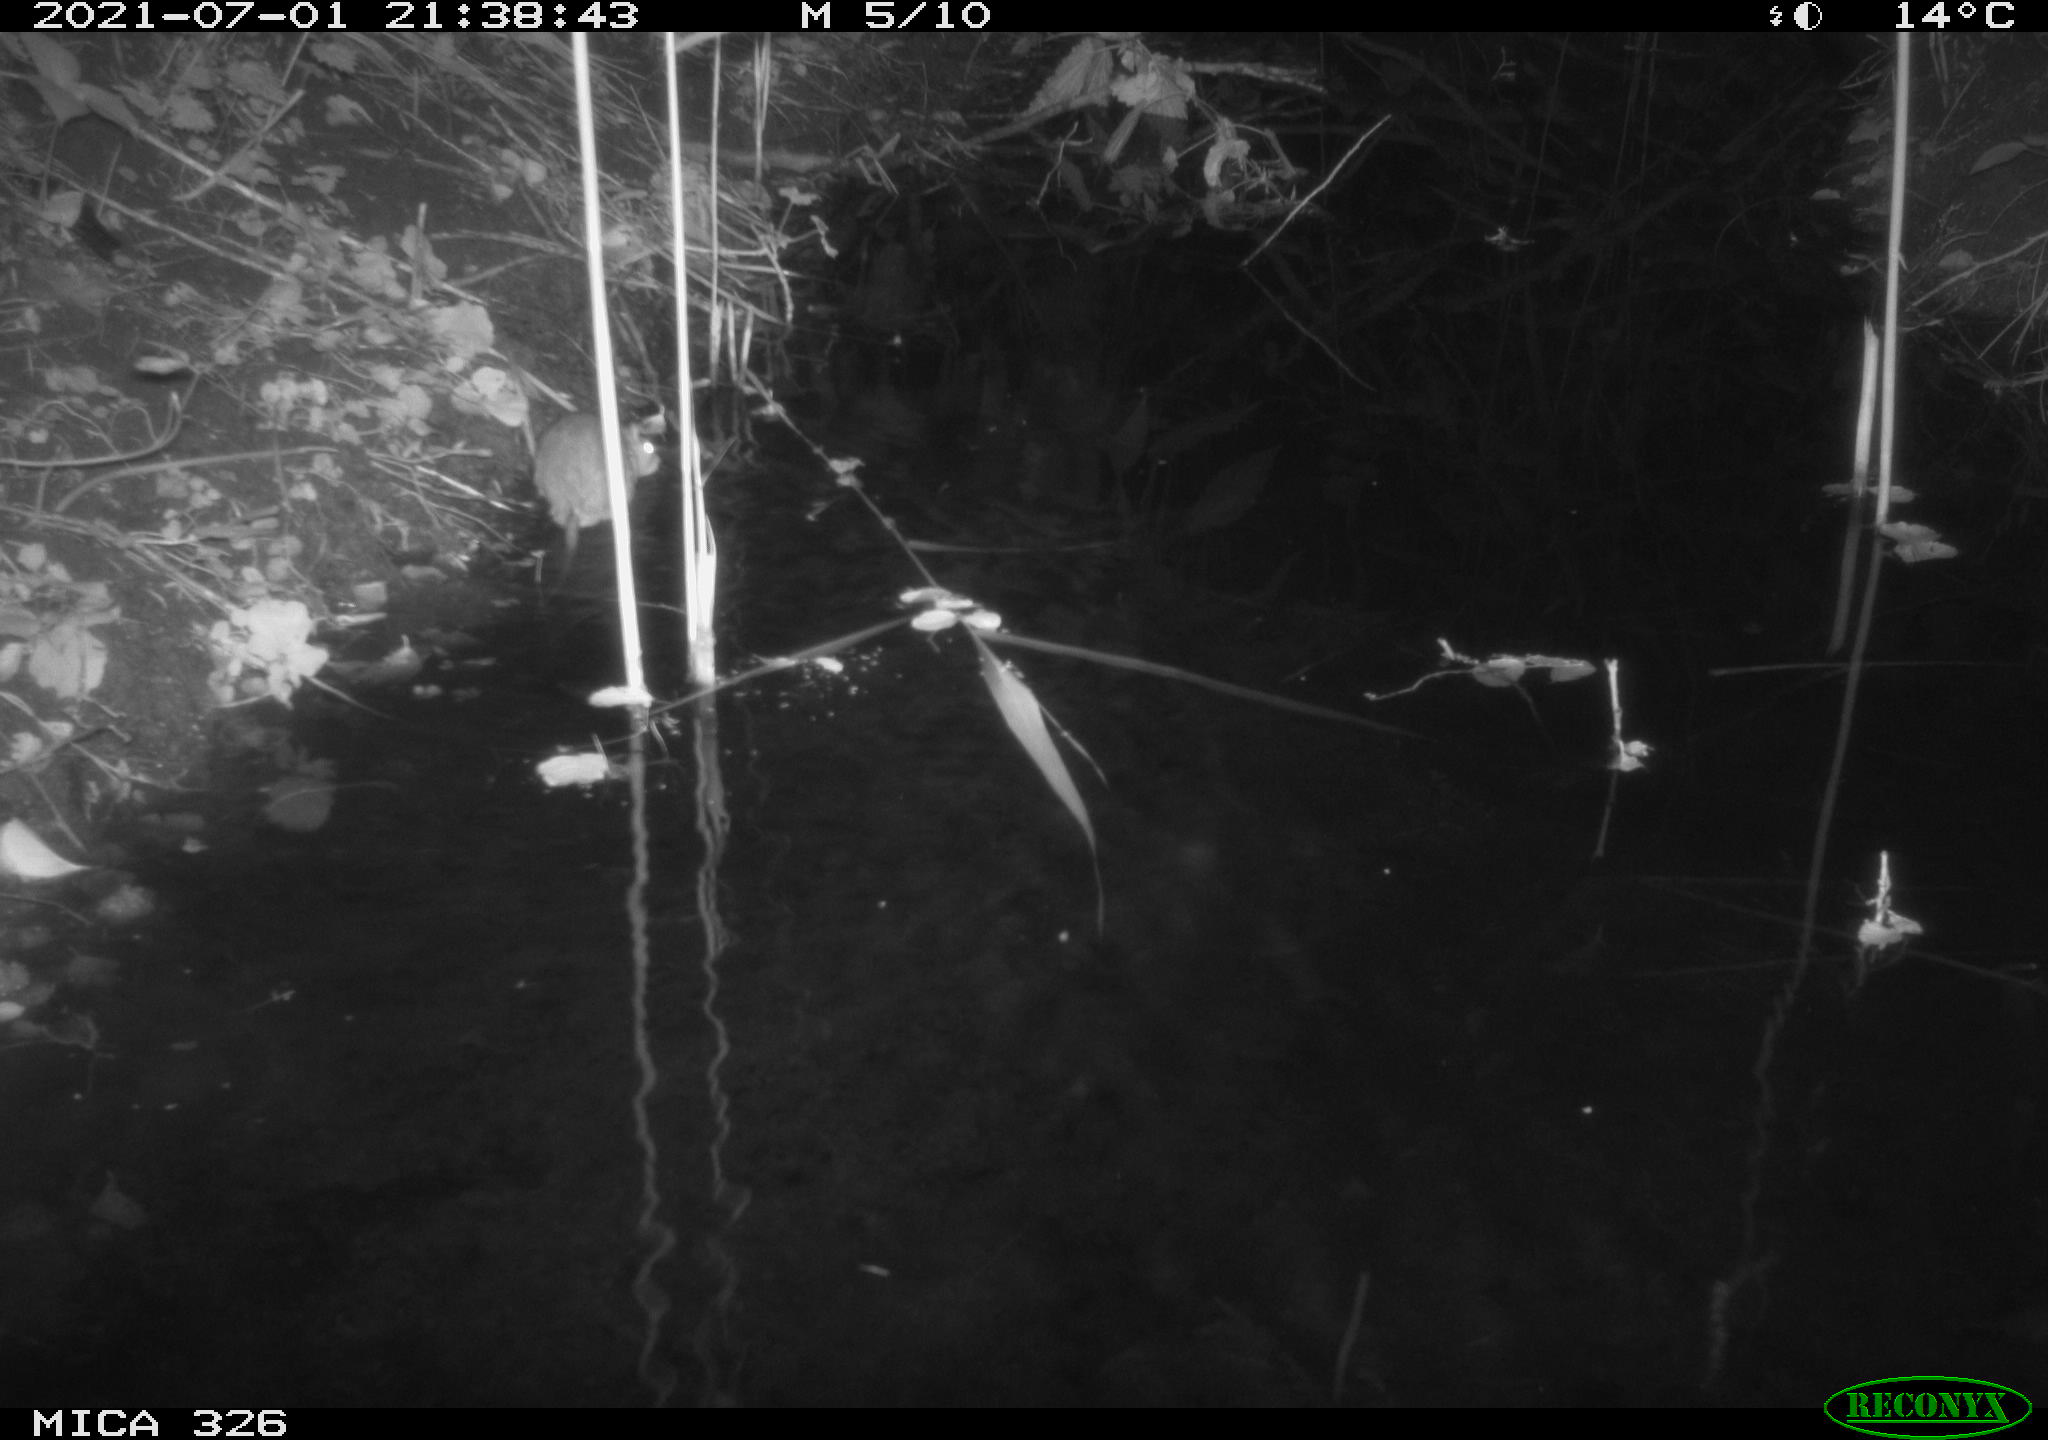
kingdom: Animalia
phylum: Chordata
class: Mammalia
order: Rodentia
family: Muridae
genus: Rattus
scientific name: Rattus norvegicus
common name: Brown rat
